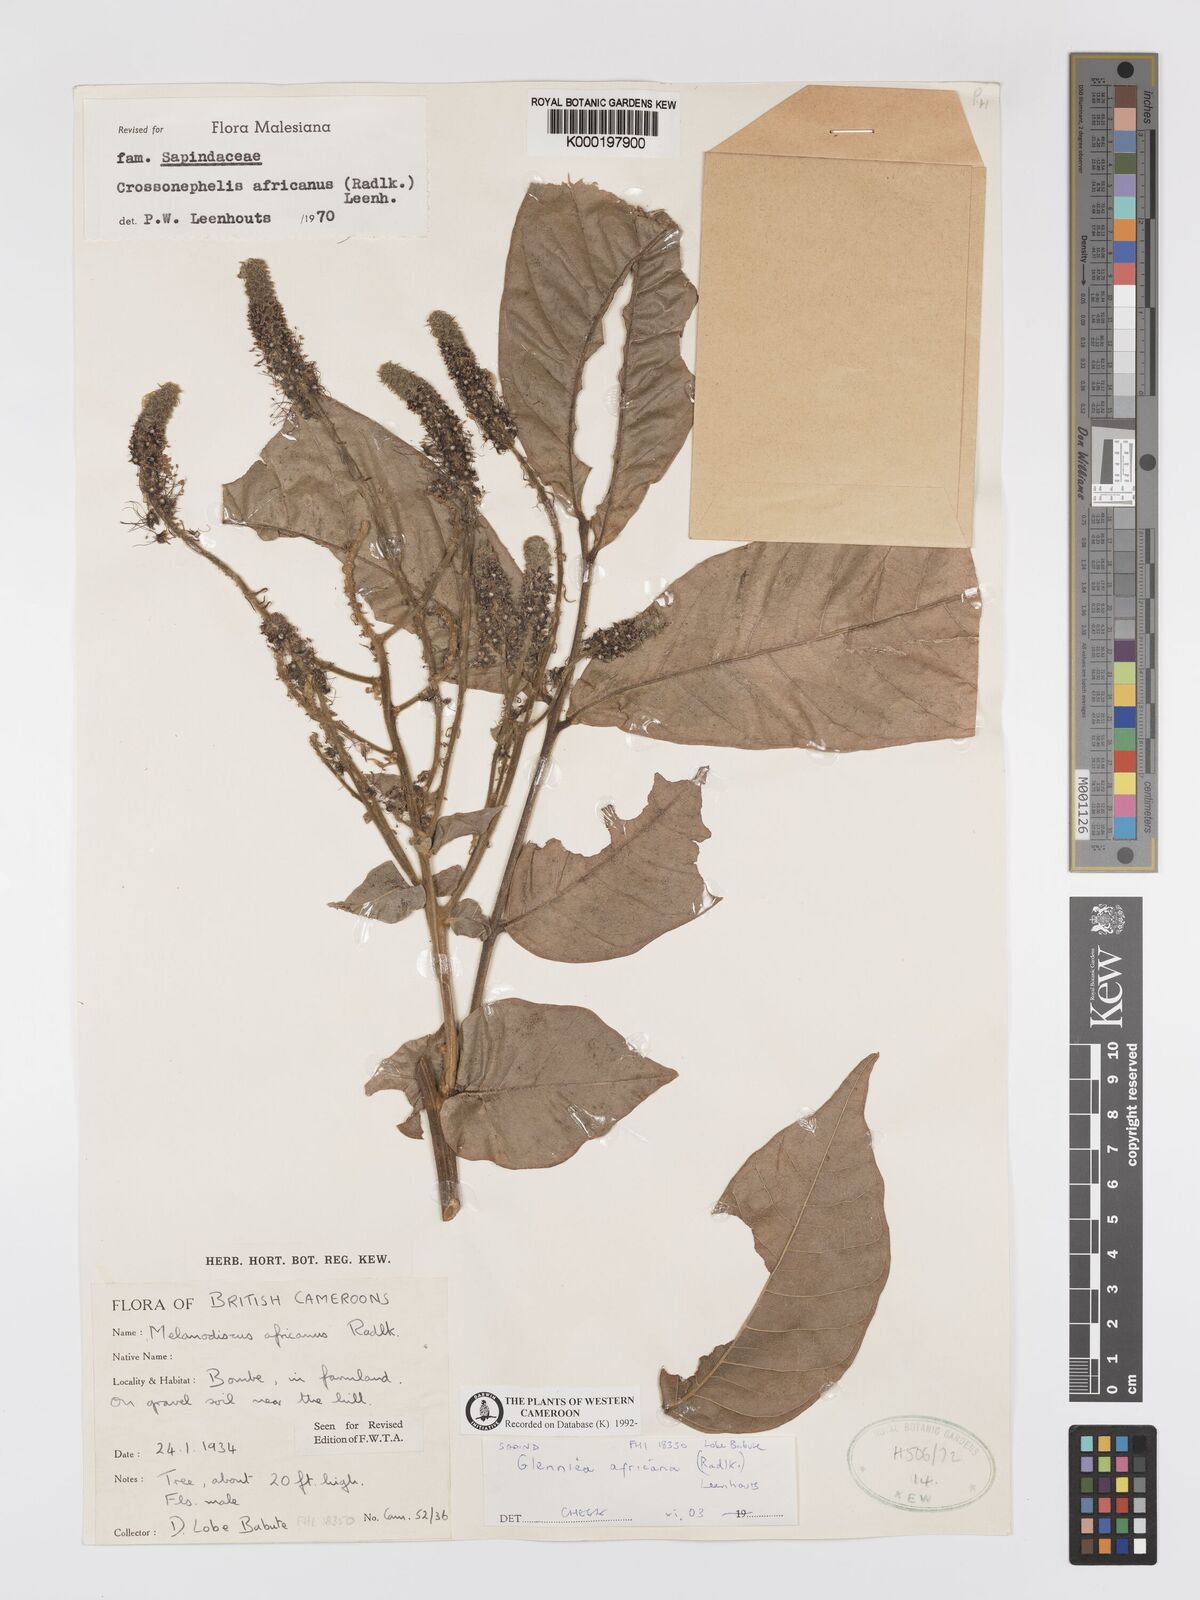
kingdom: Plantae
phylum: Tracheophyta
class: Magnoliopsida
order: Sapindales
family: Sapindaceae
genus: Glenniea
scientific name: Glenniea africana
